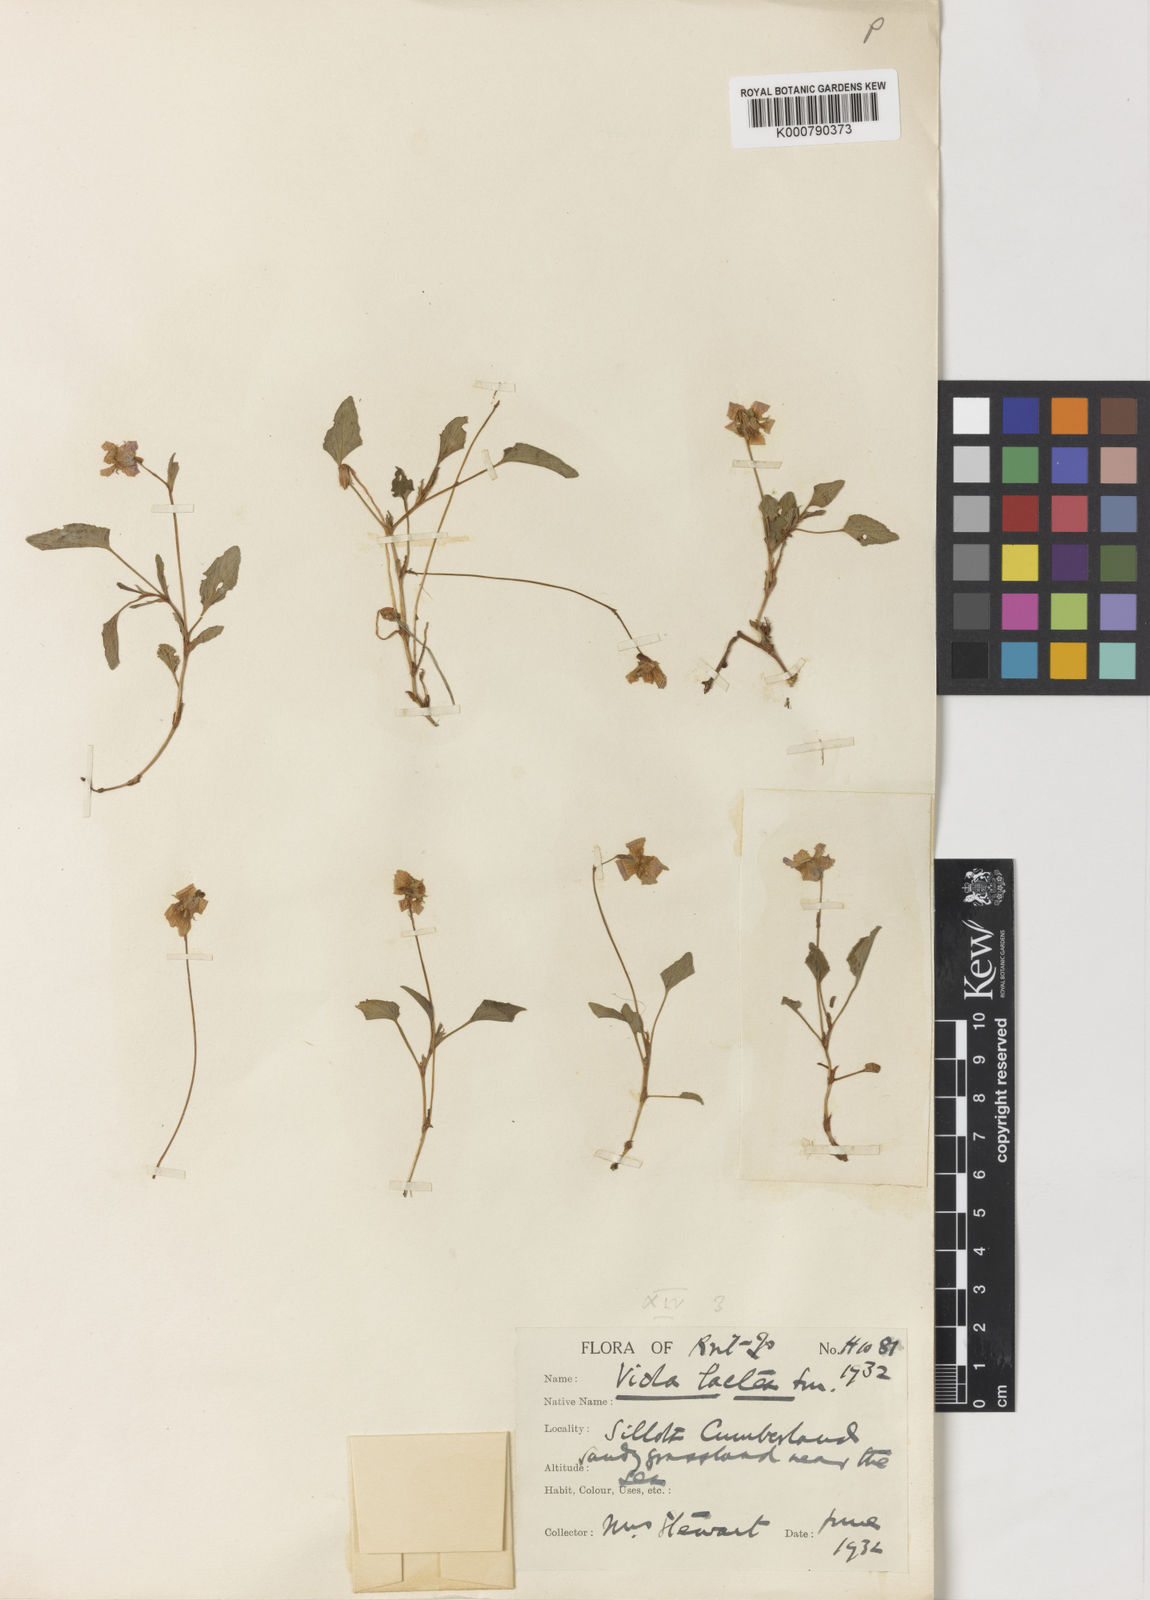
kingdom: Plantae
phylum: Tracheophyta
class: Magnoliopsida
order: Malpighiales
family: Violaceae
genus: Viola
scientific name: Viola lactea
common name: Pale dog-violet
